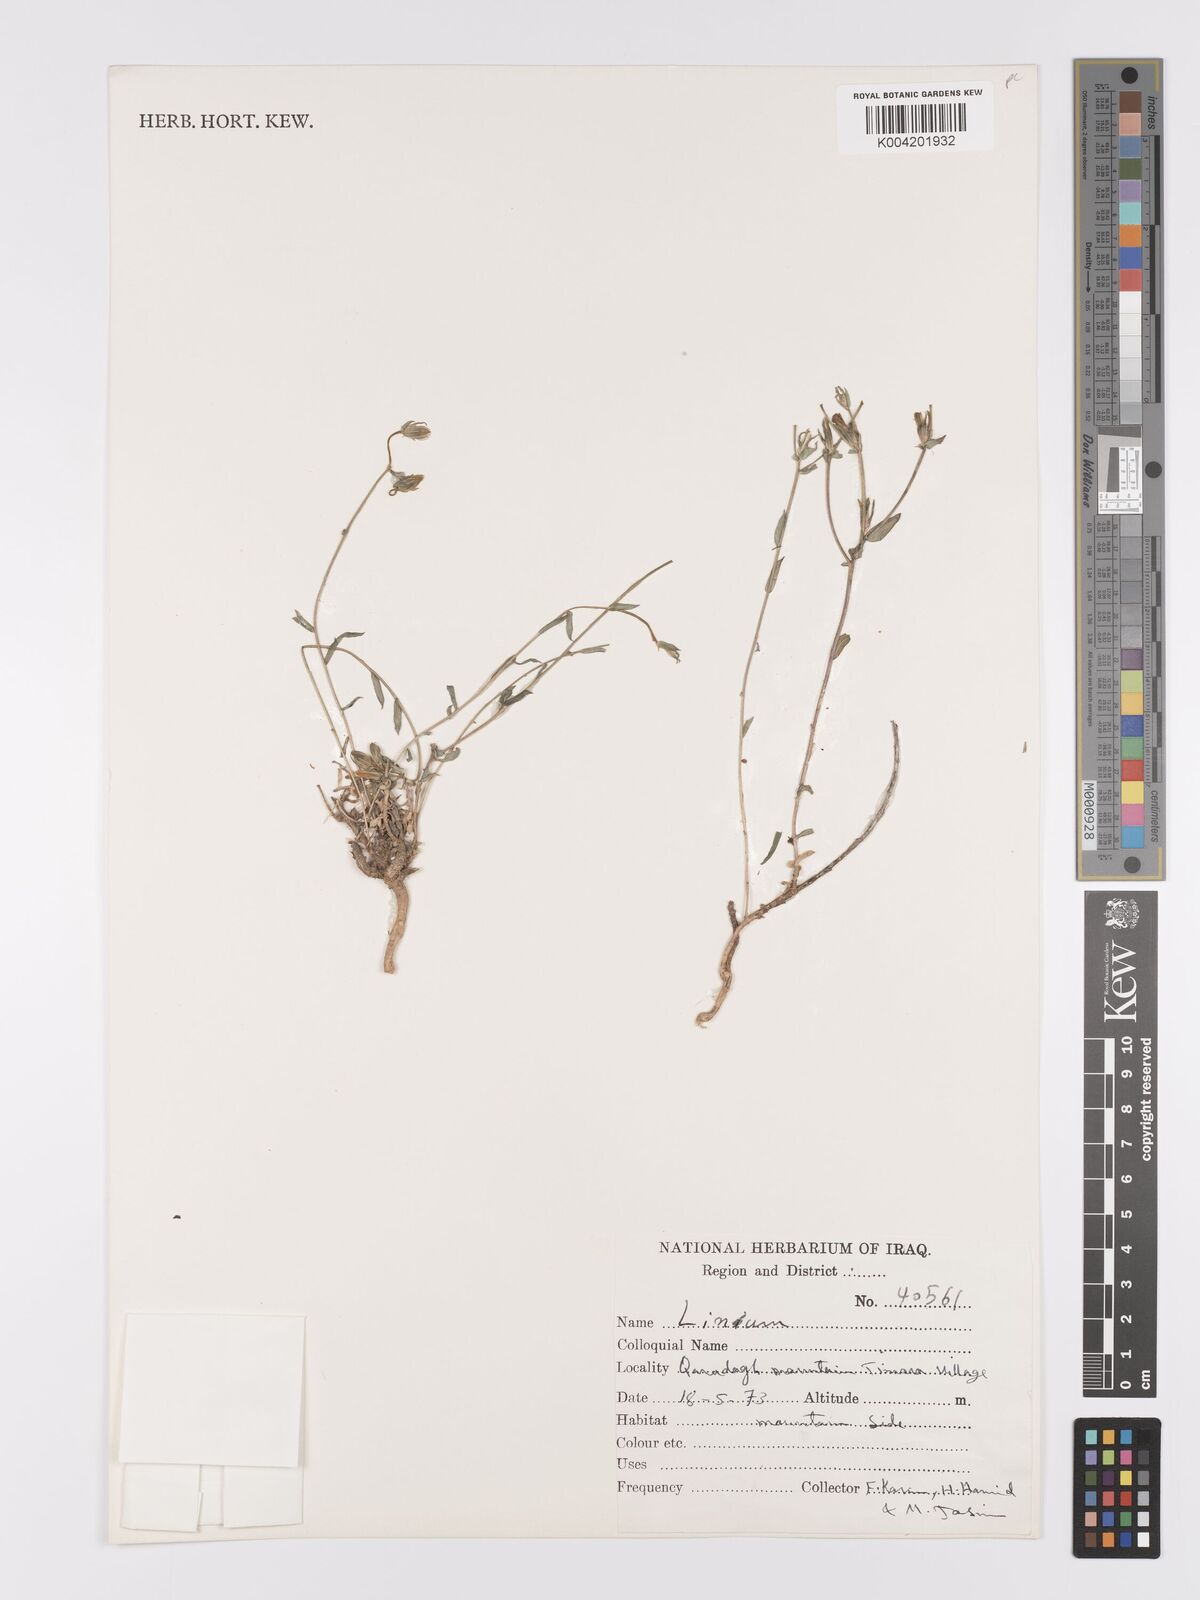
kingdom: Plantae
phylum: Tracheophyta
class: Magnoliopsida
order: Malpighiales
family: Linaceae
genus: Linum
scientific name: Linum
